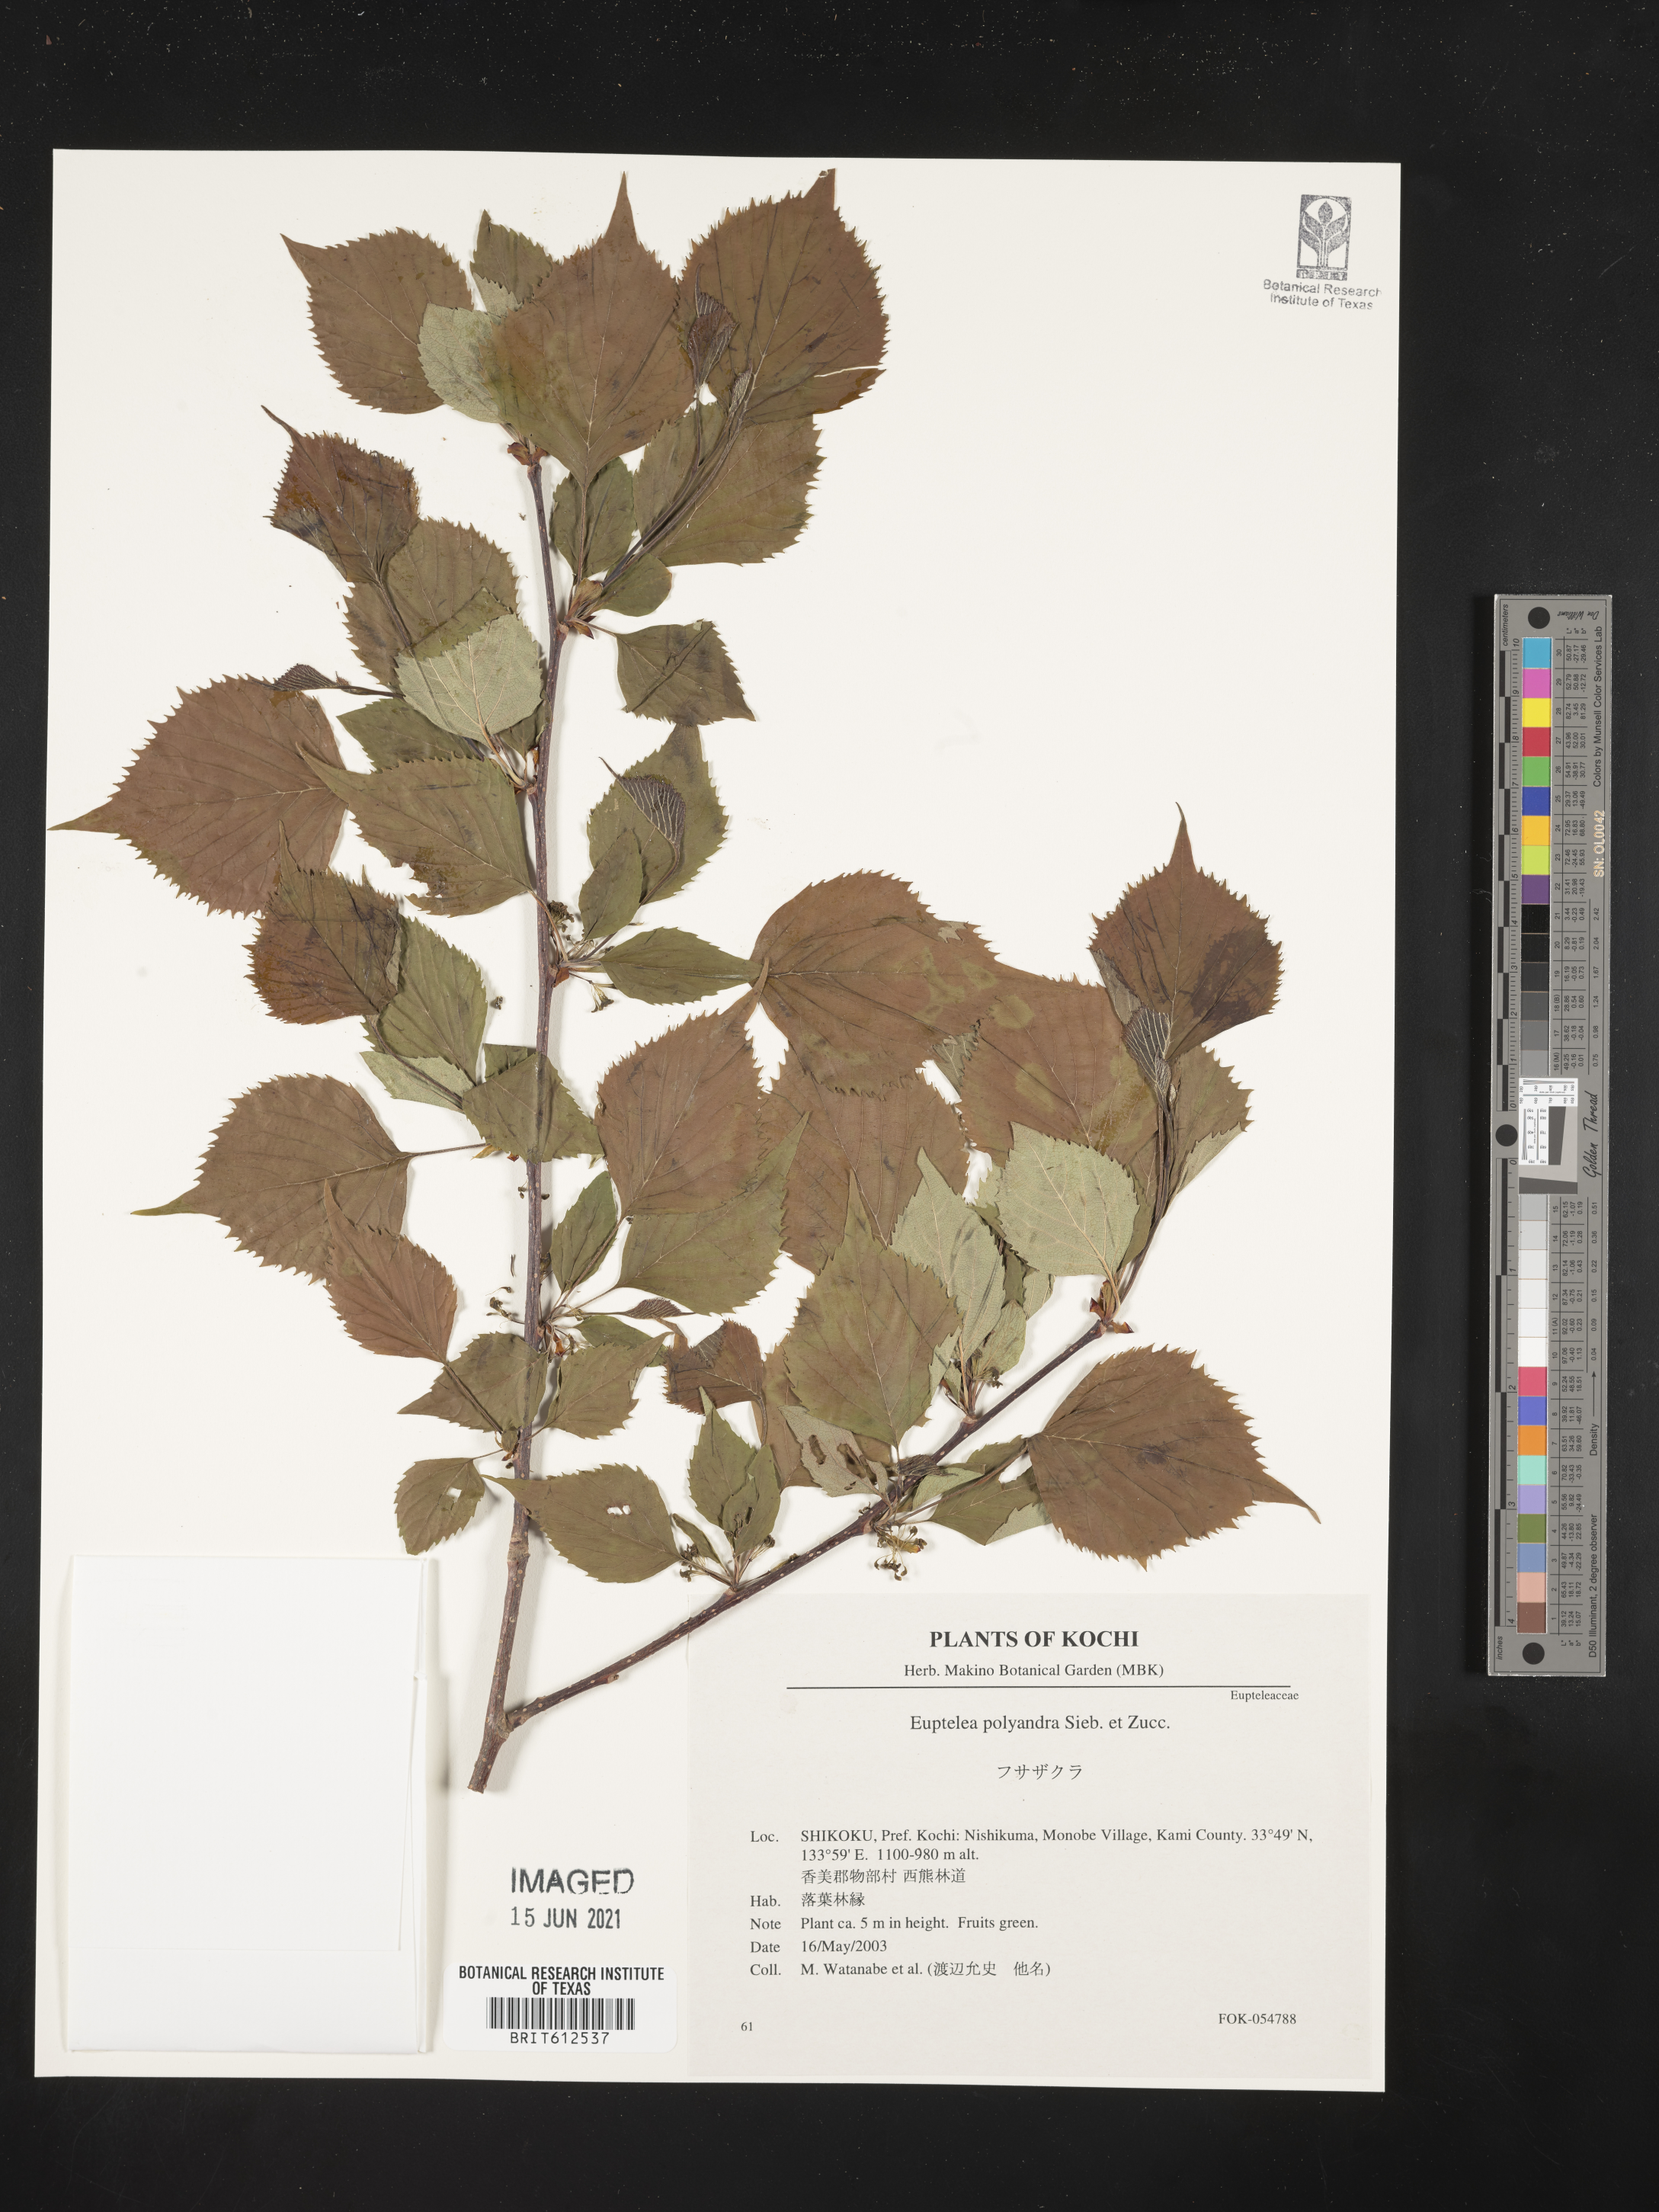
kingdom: Plantae
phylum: Tracheophyta
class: Magnoliopsida
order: Ranunculales
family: Eupteleaceae
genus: Euptelea
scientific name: Euptelea polyandra
